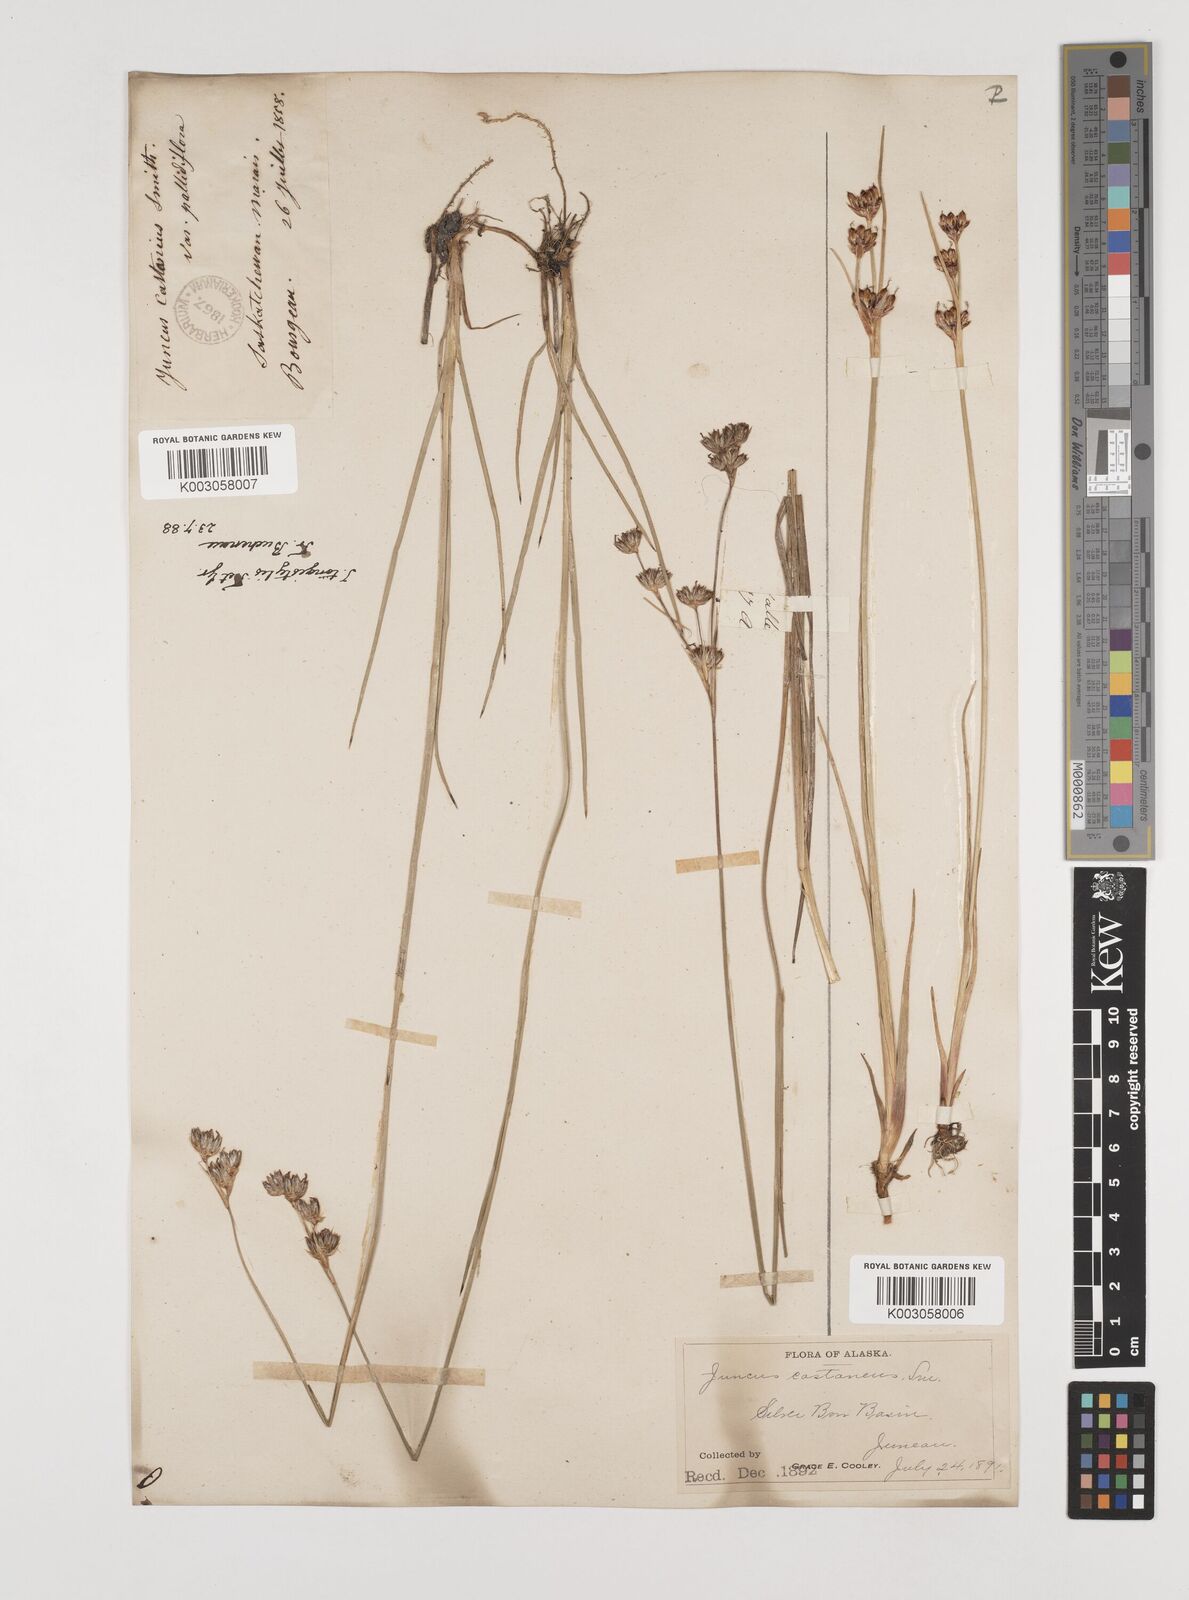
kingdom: Plantae
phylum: Tracheophyta
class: Liliopsida
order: Poales
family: Juncaceae
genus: Juncus
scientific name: Juncus longistylis
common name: Long-style rush
